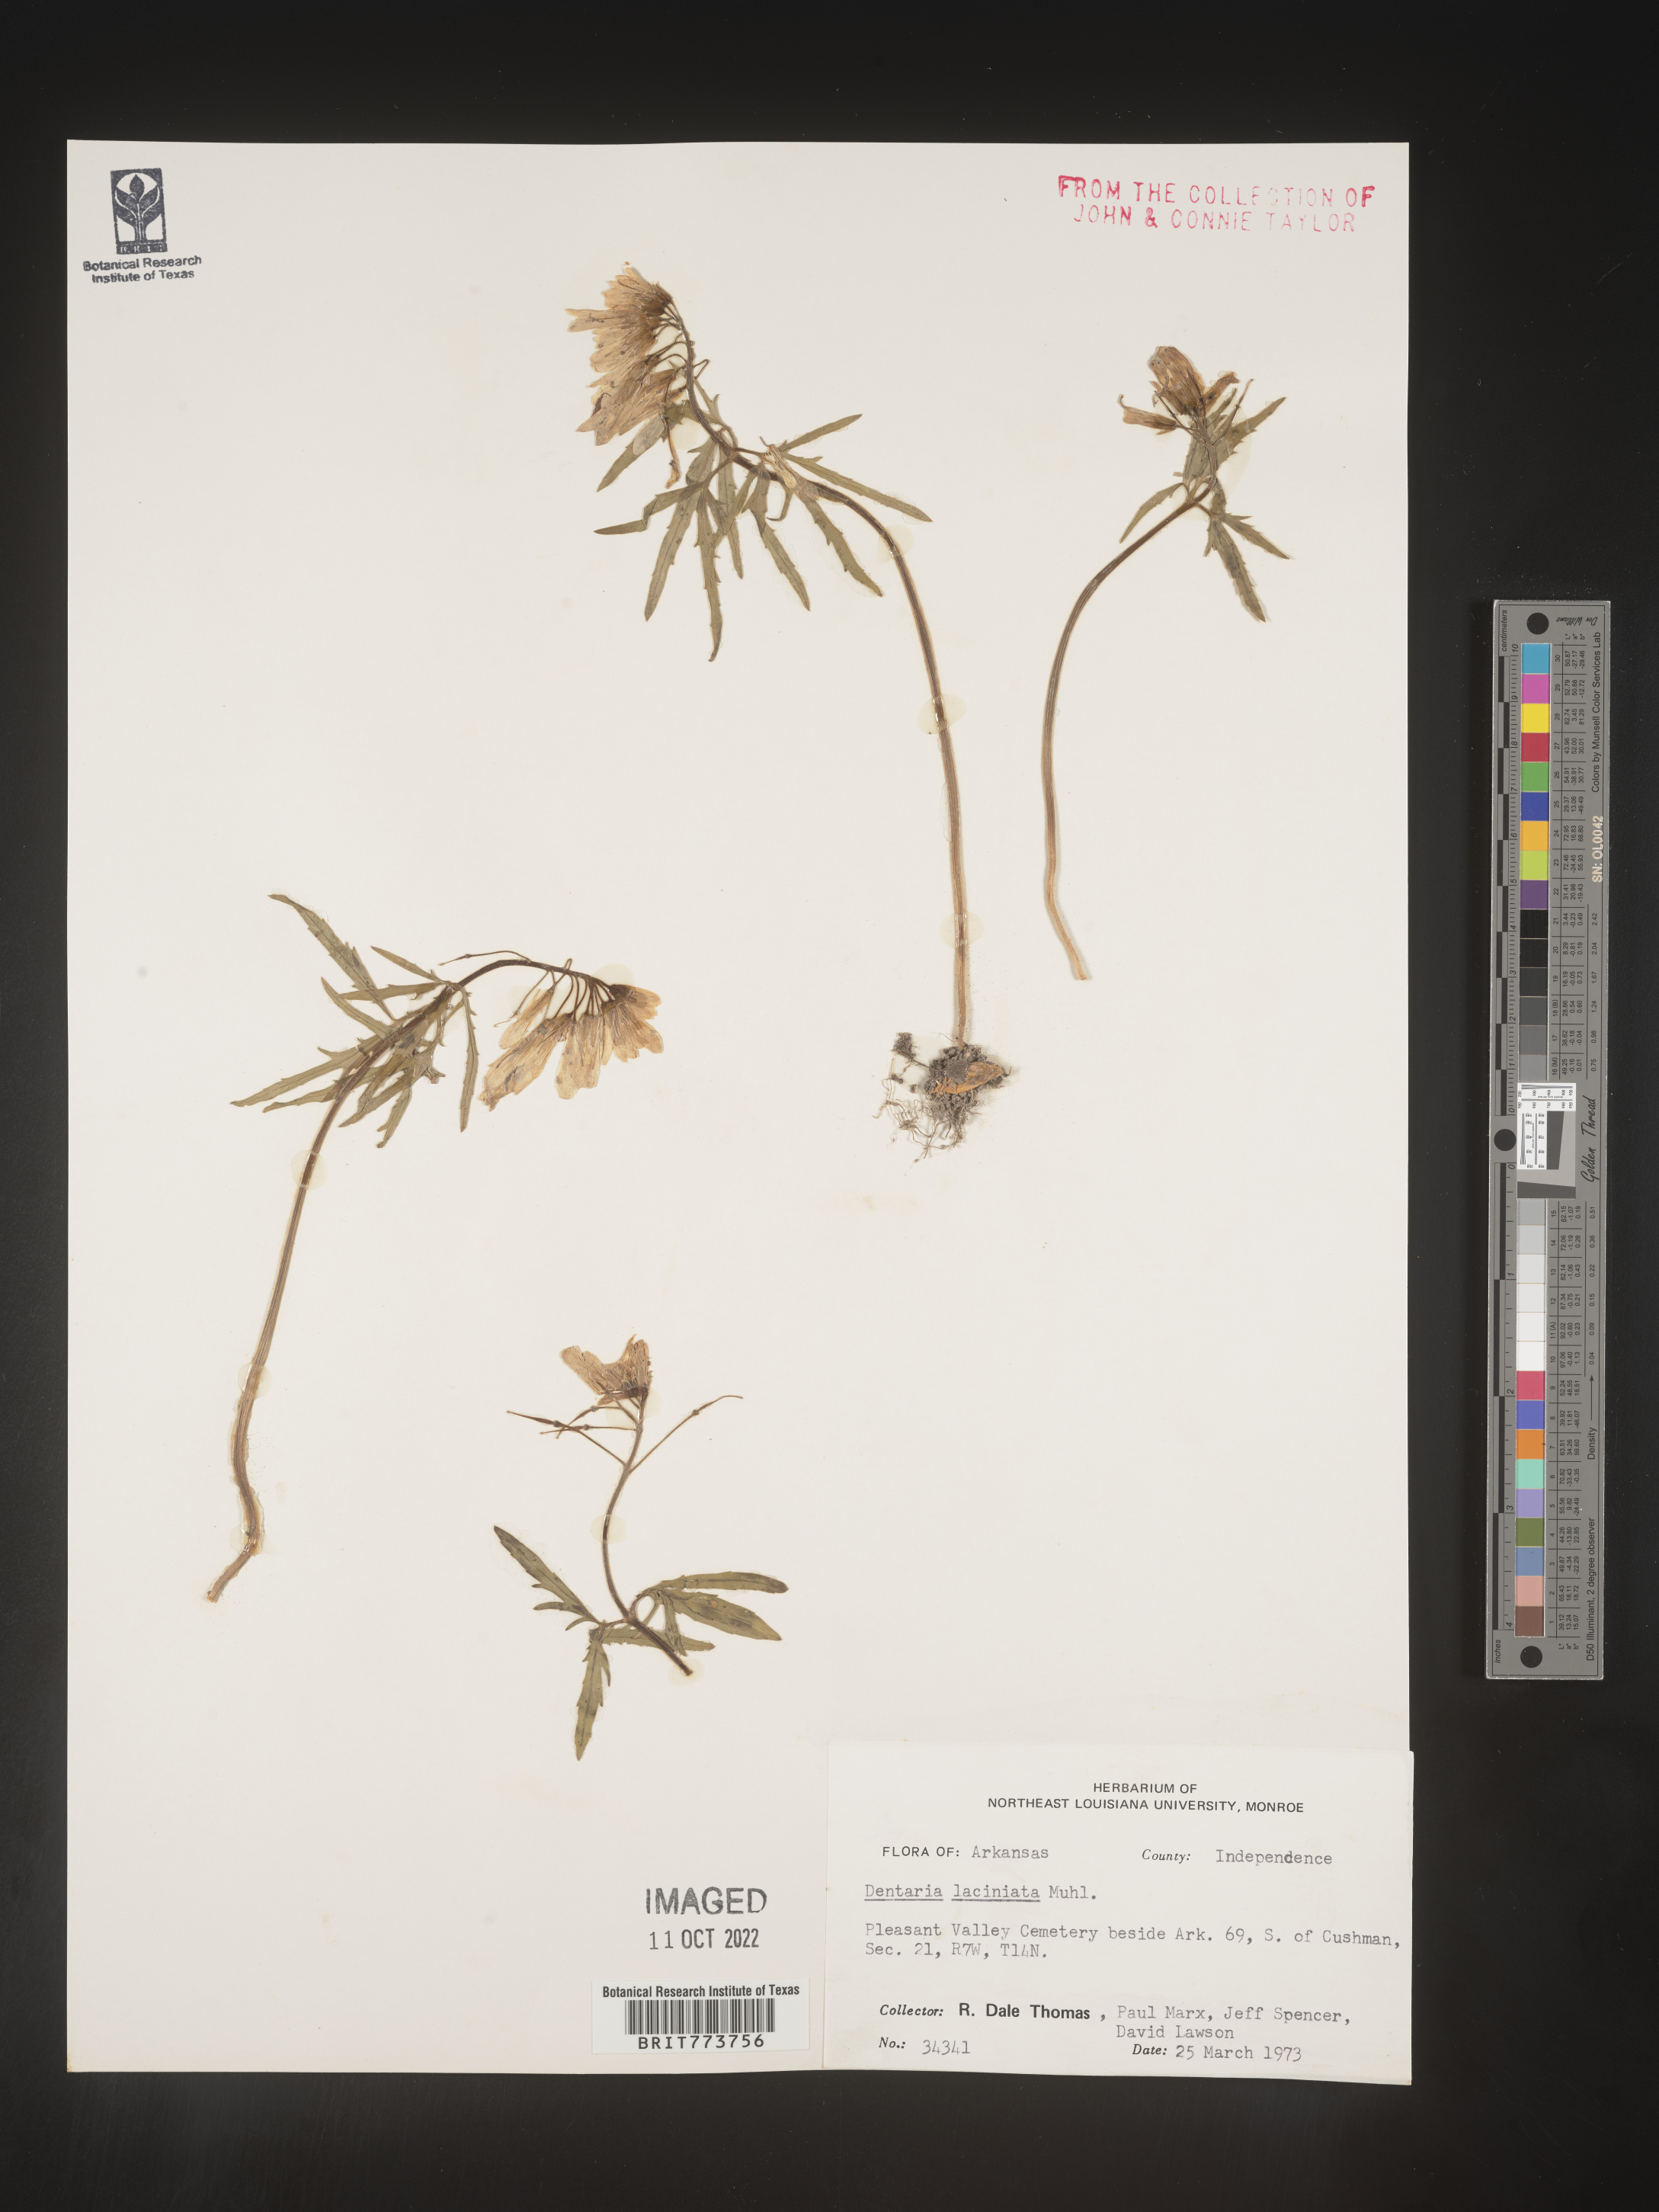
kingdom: Plantae
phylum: Tracheophyta
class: Magnoliopsida
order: Brassicales
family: Brassicaceae
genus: Rorippa
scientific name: Rorippa laciniata
